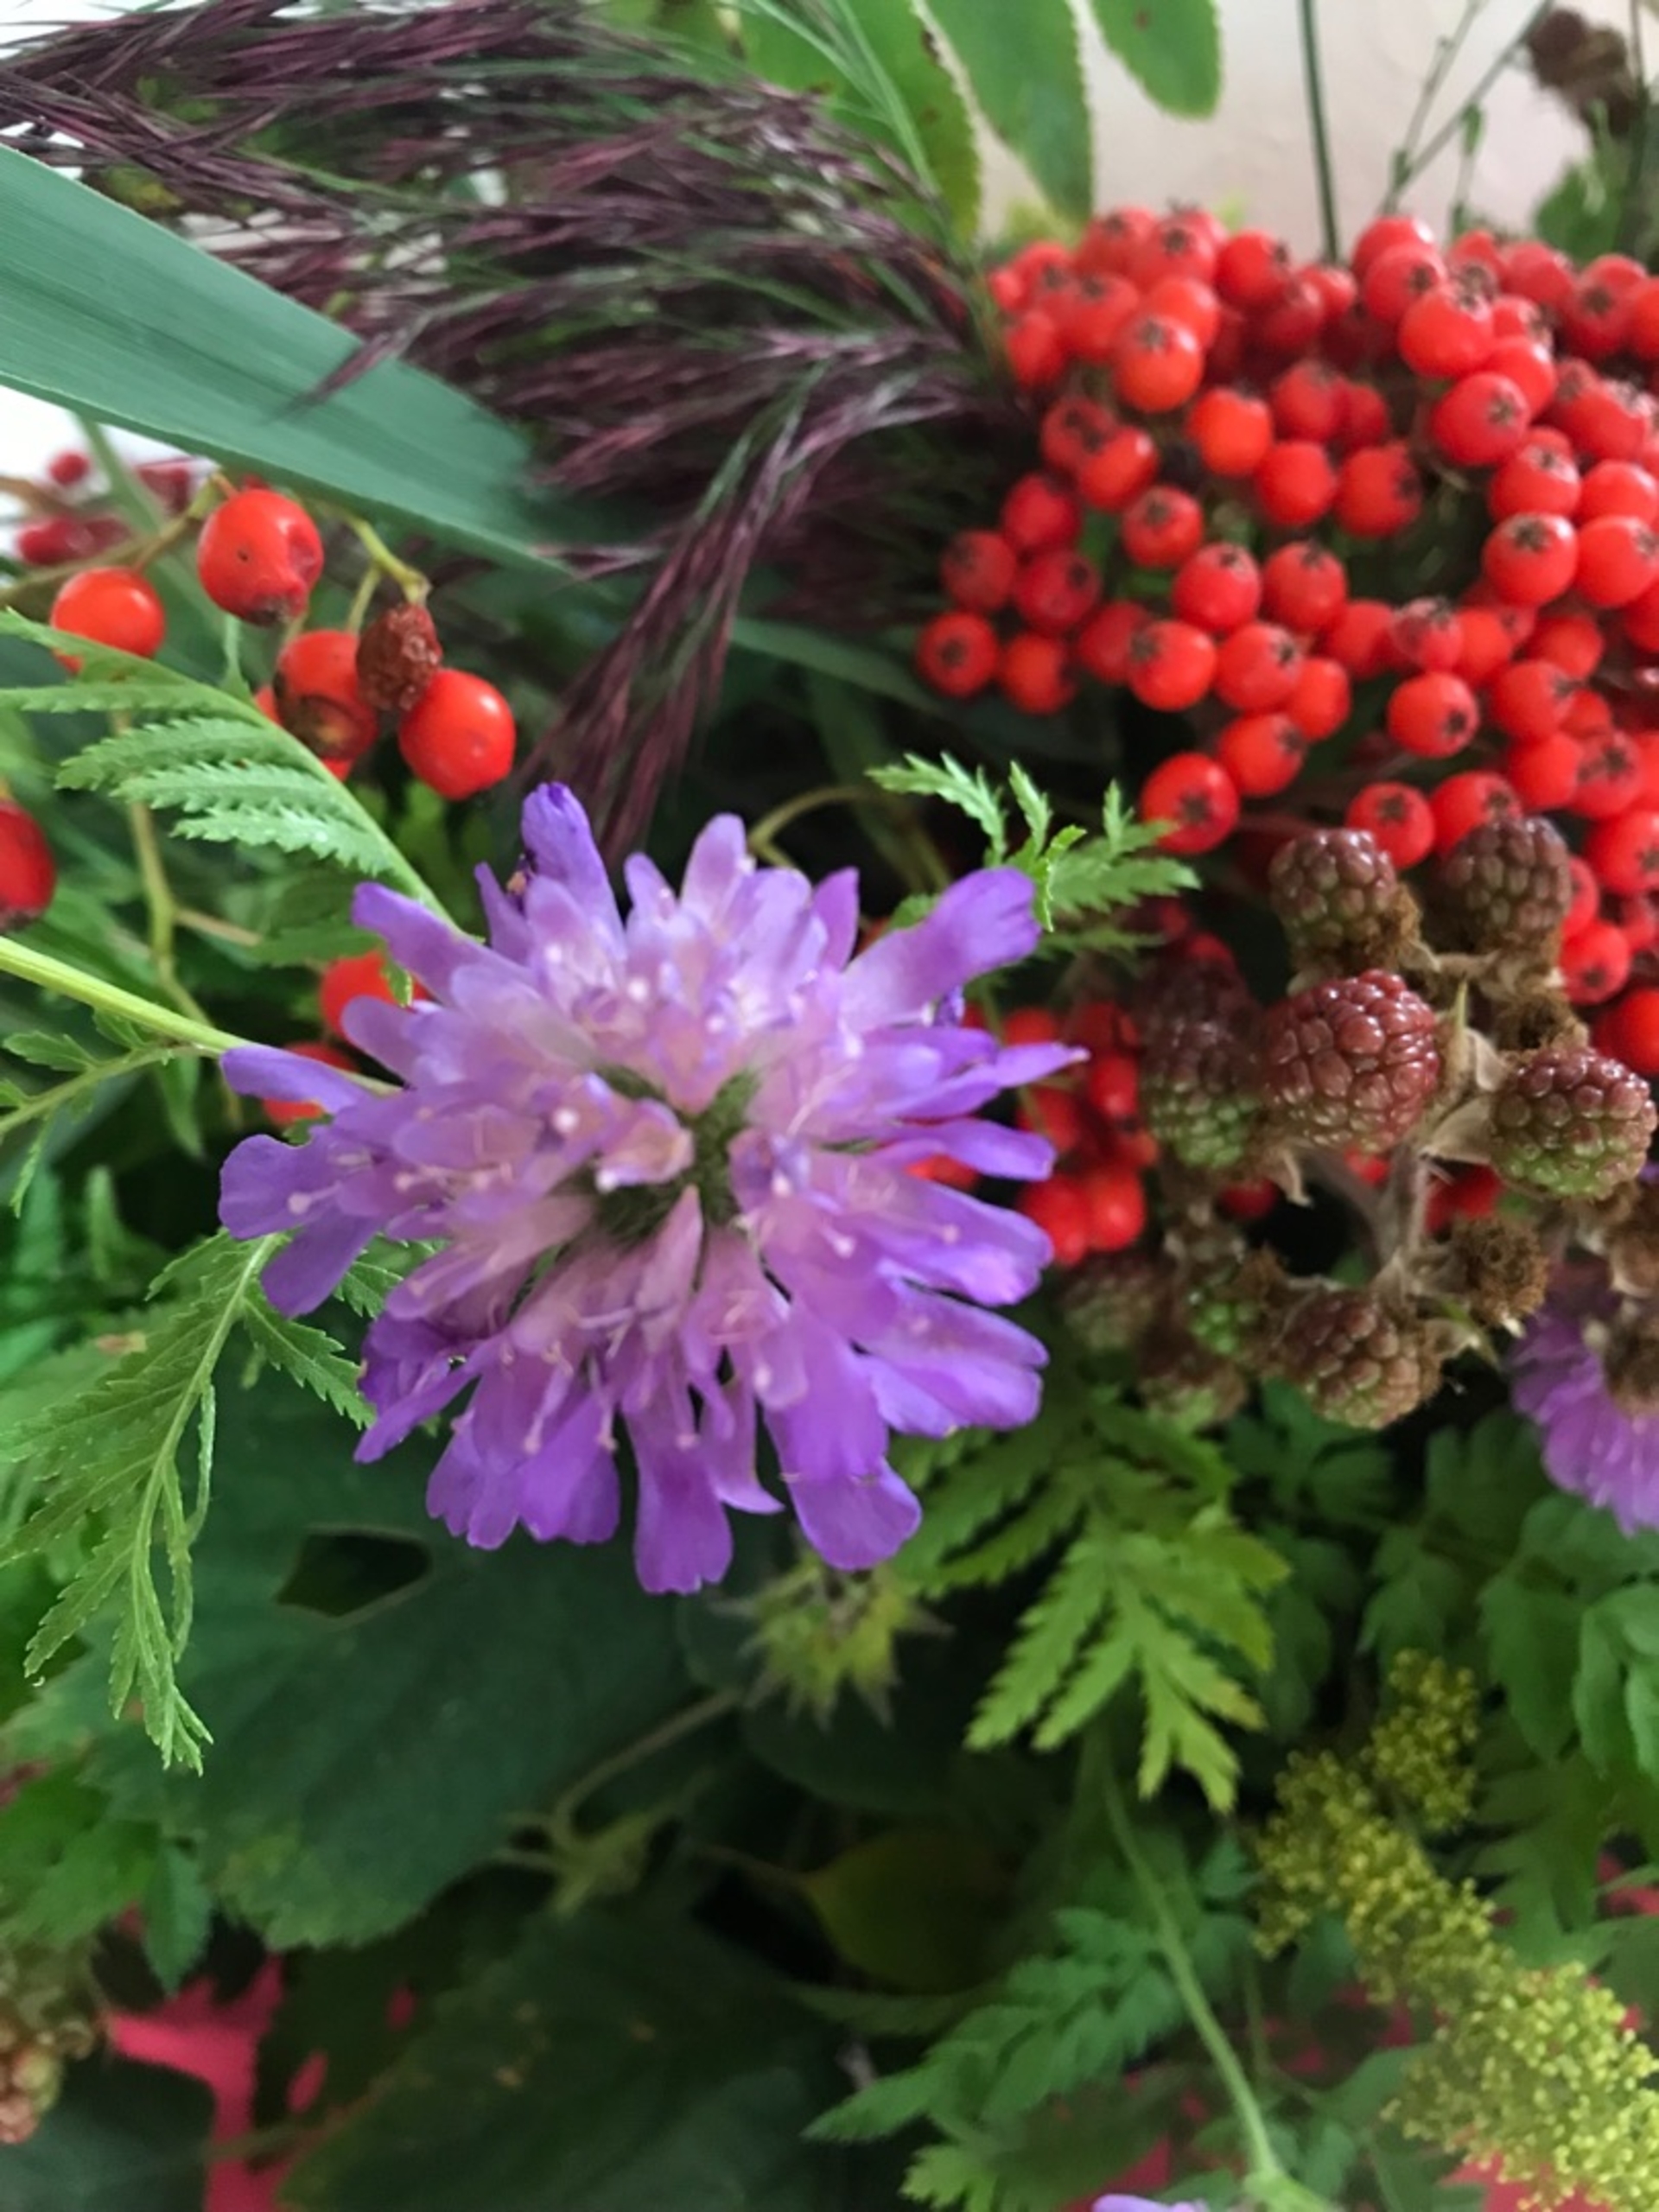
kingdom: Plantae
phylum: Tracheophyta
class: Magnoliopsida
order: Dipsacales
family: Caprifoliaceae
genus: Knautia
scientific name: Knautia arvensis
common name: Blåhat
